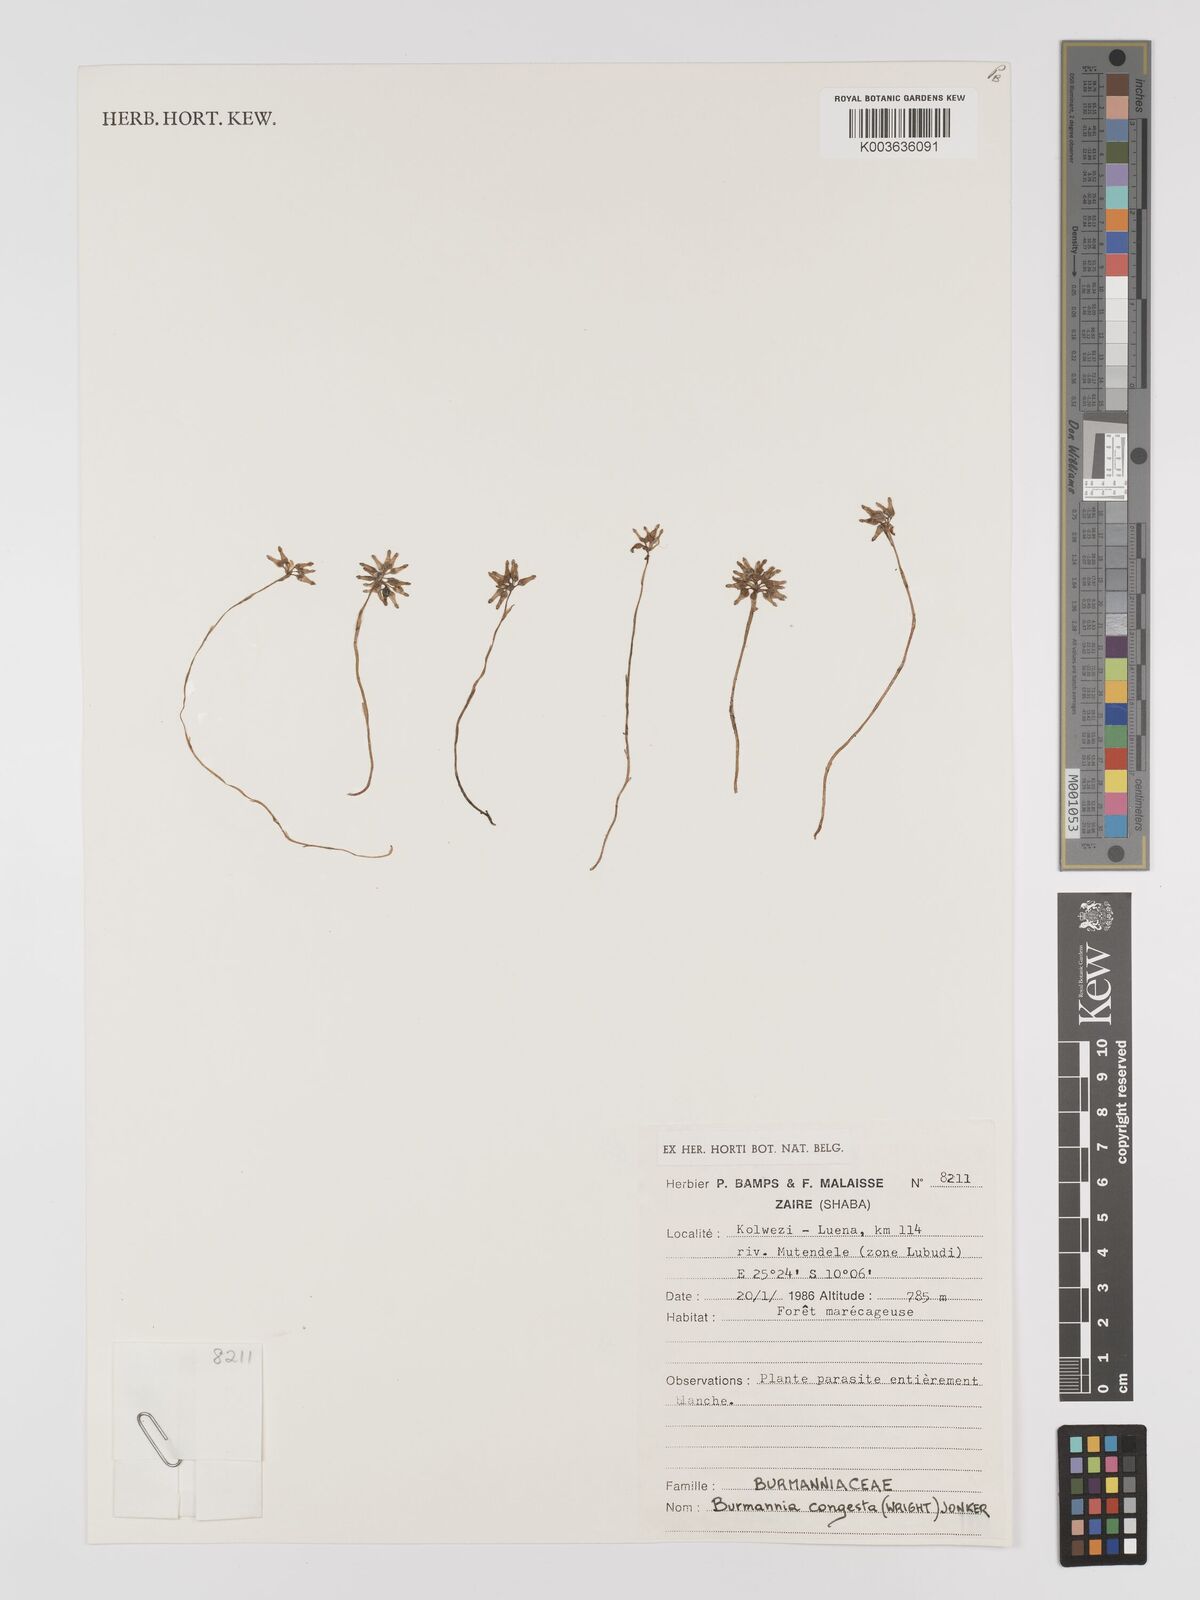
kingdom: Plantae
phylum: Tracheophyta
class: Liliopsida
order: Dioscoreales
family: Burmanniaceae
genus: Campylosiphon
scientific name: Campylosiphon congestus
